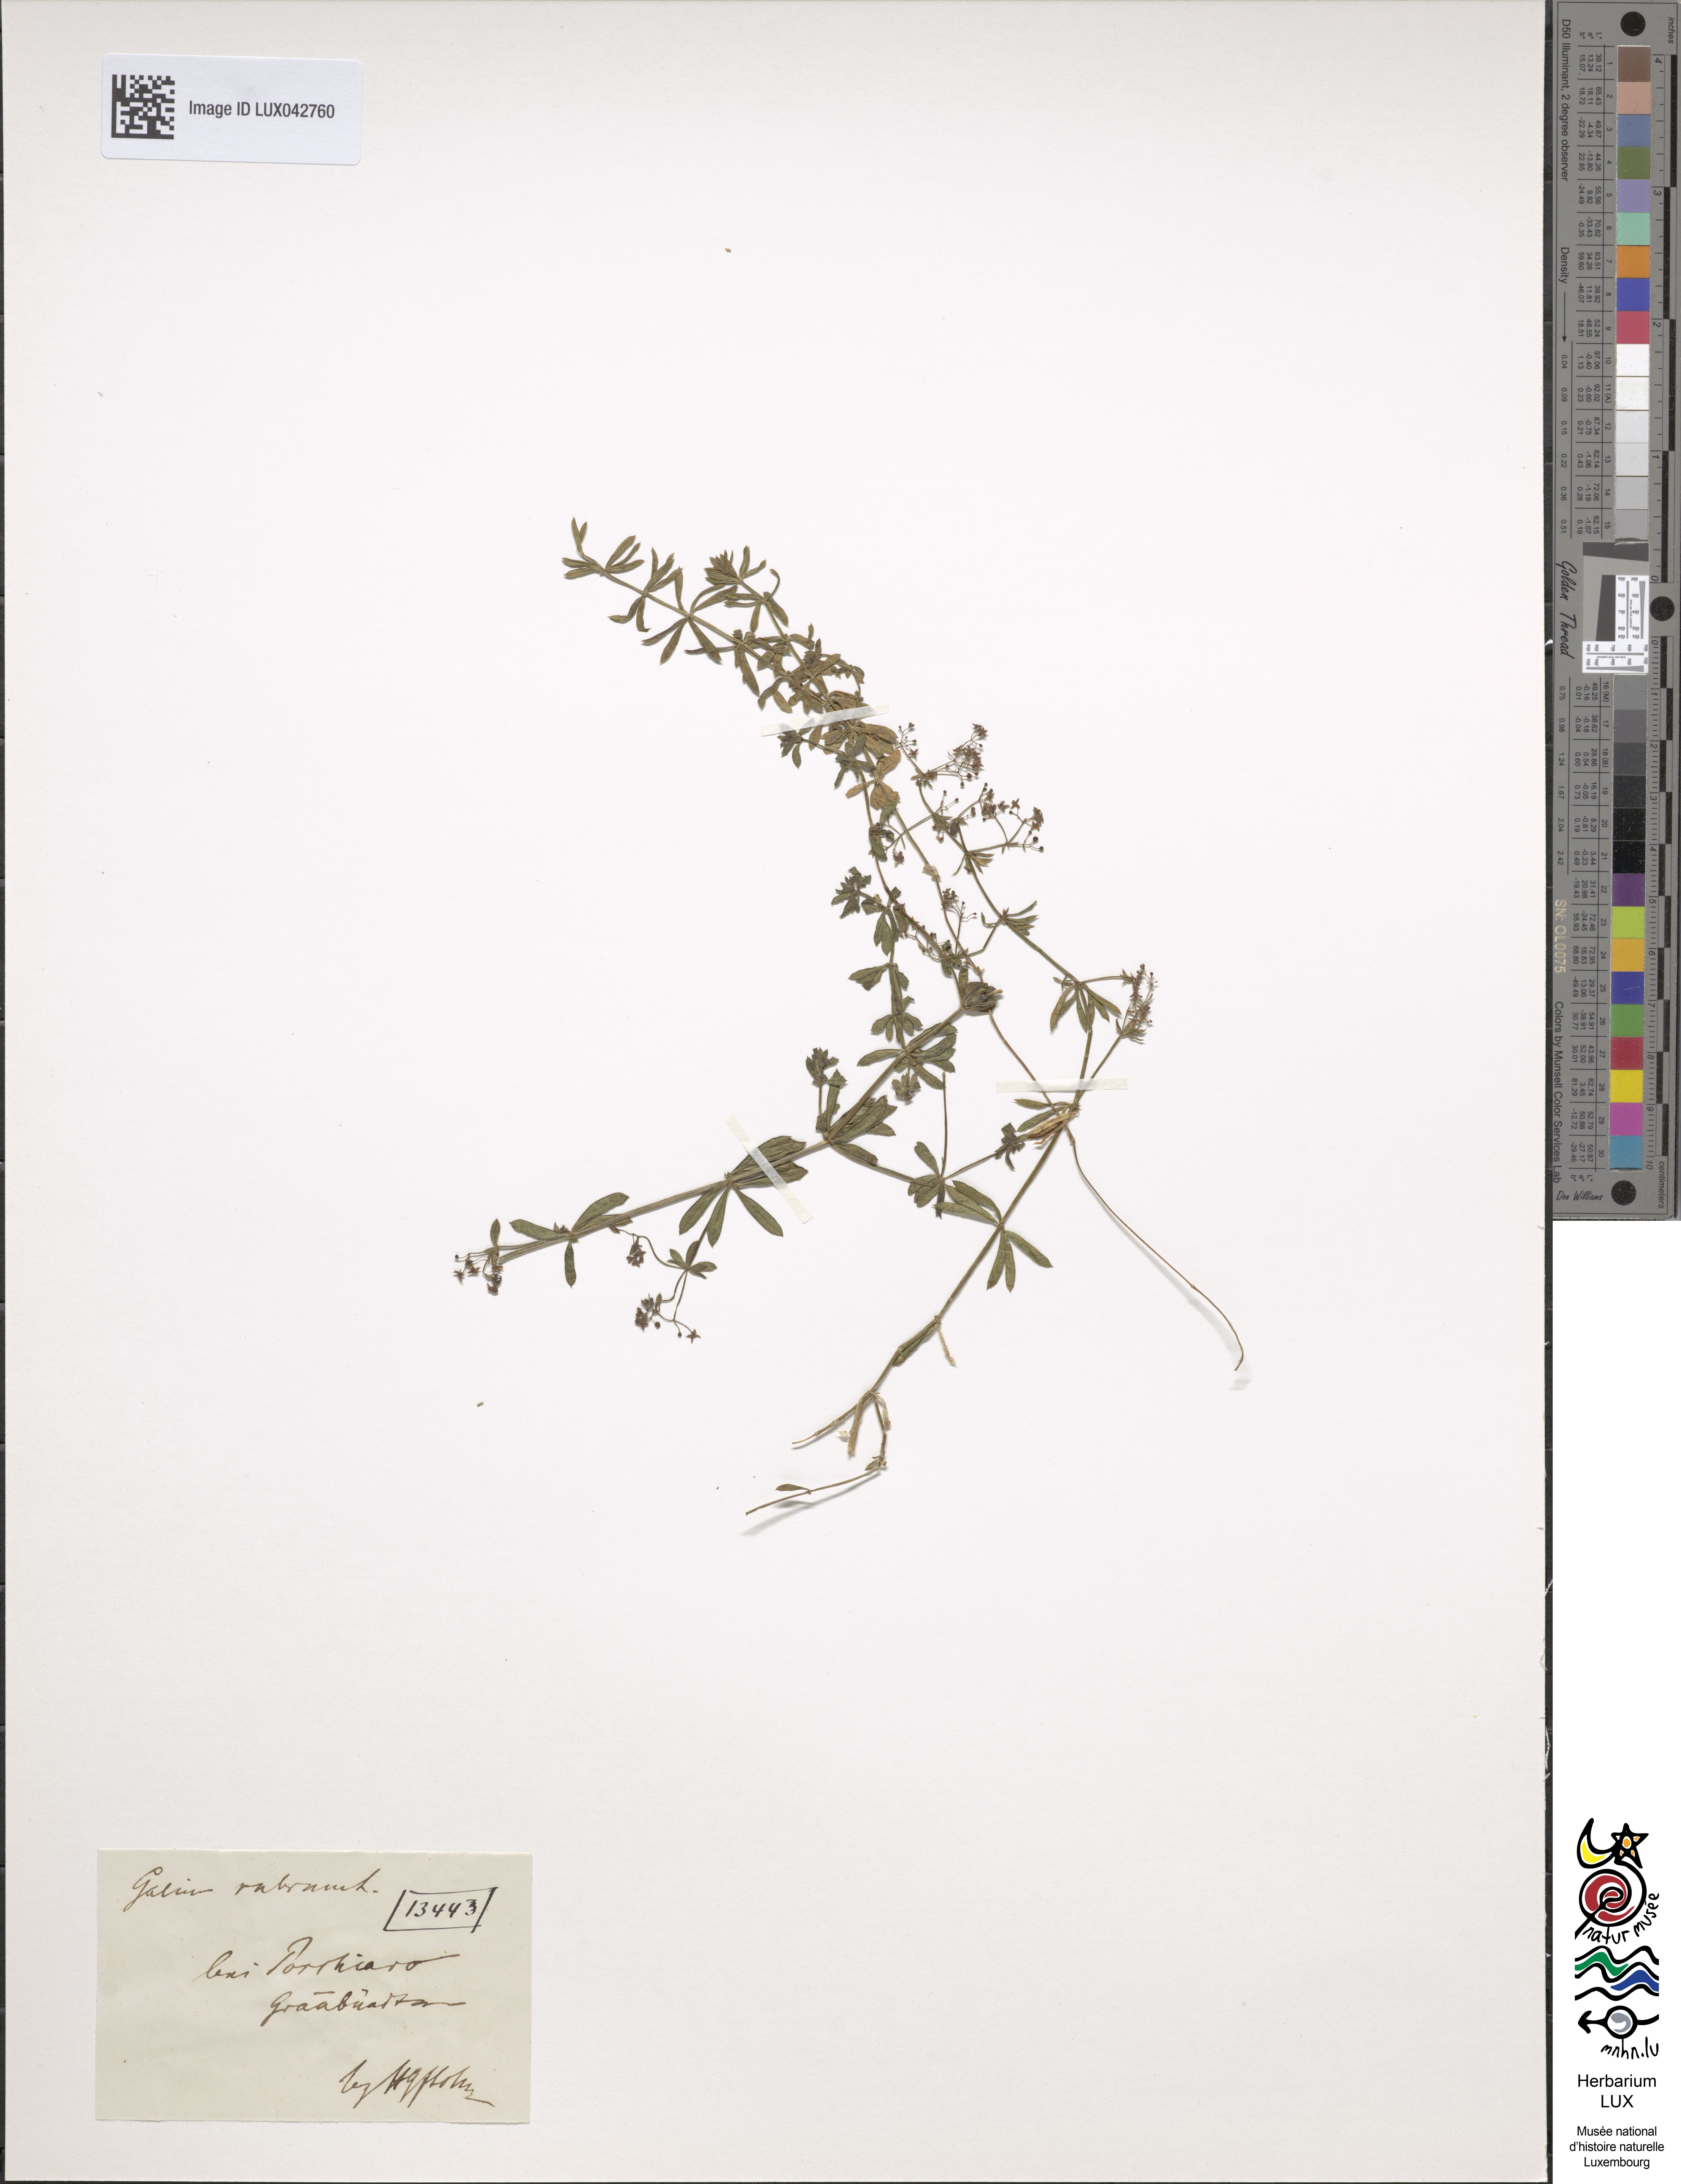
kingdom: Plantae
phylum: Tracheophyta
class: Magnoliopsida
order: Gentianales
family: Rubiaceae
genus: Galium
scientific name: Galium rubrum
